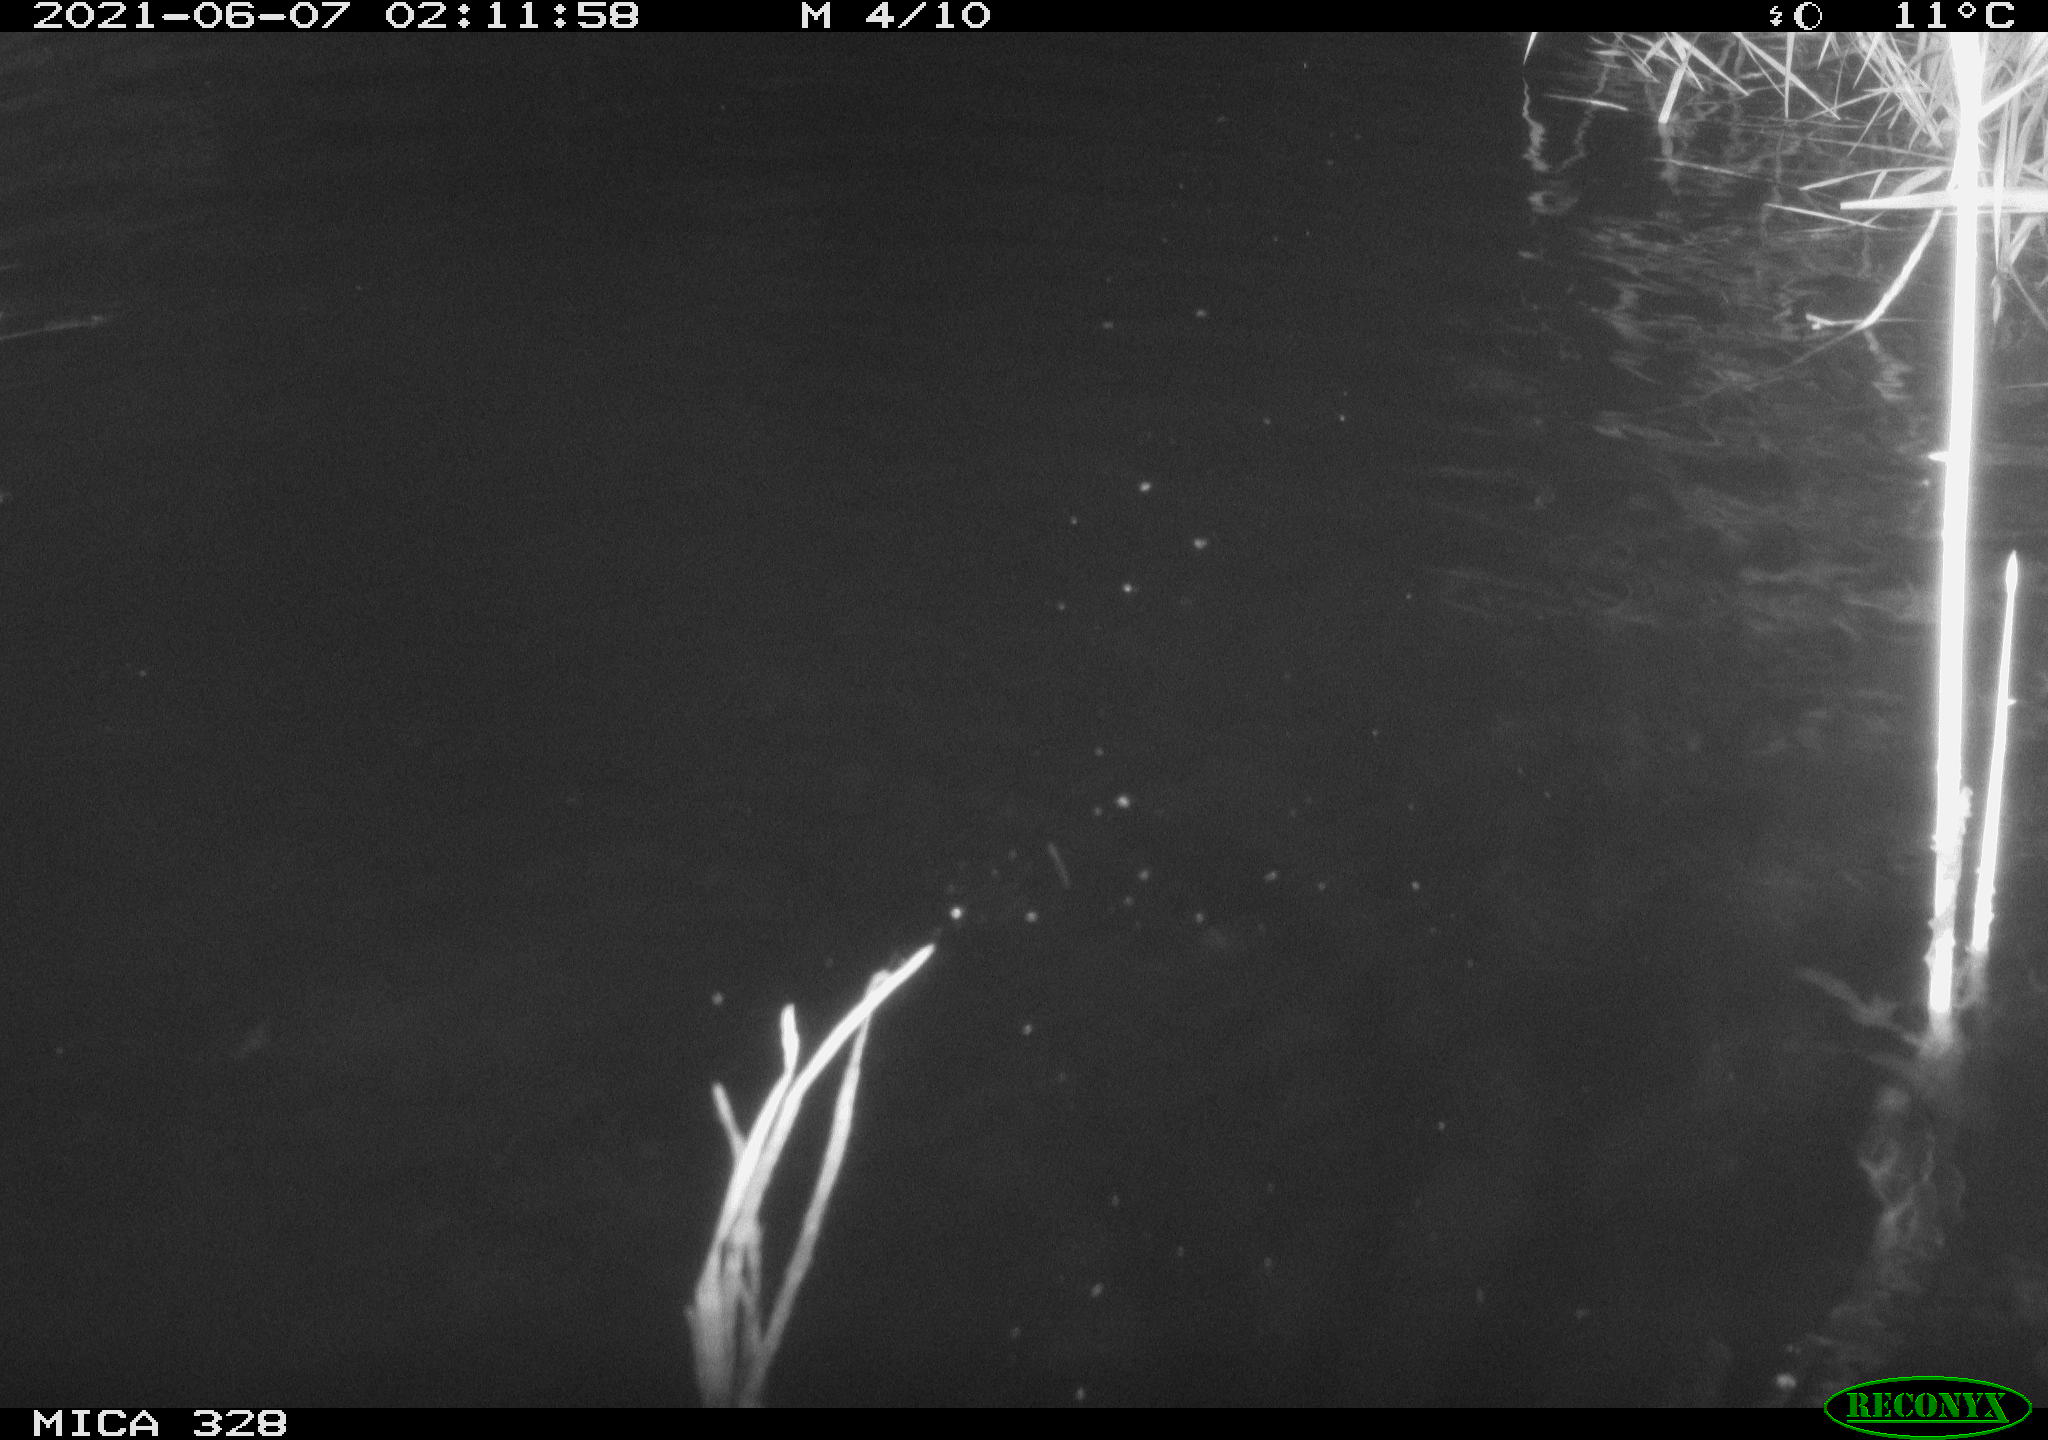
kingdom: Animalia
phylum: Chordata
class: Mammalia
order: Rodentia
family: Cricetidae
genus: Ondatra
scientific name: Ondatra zibethicus
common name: Muskrat
